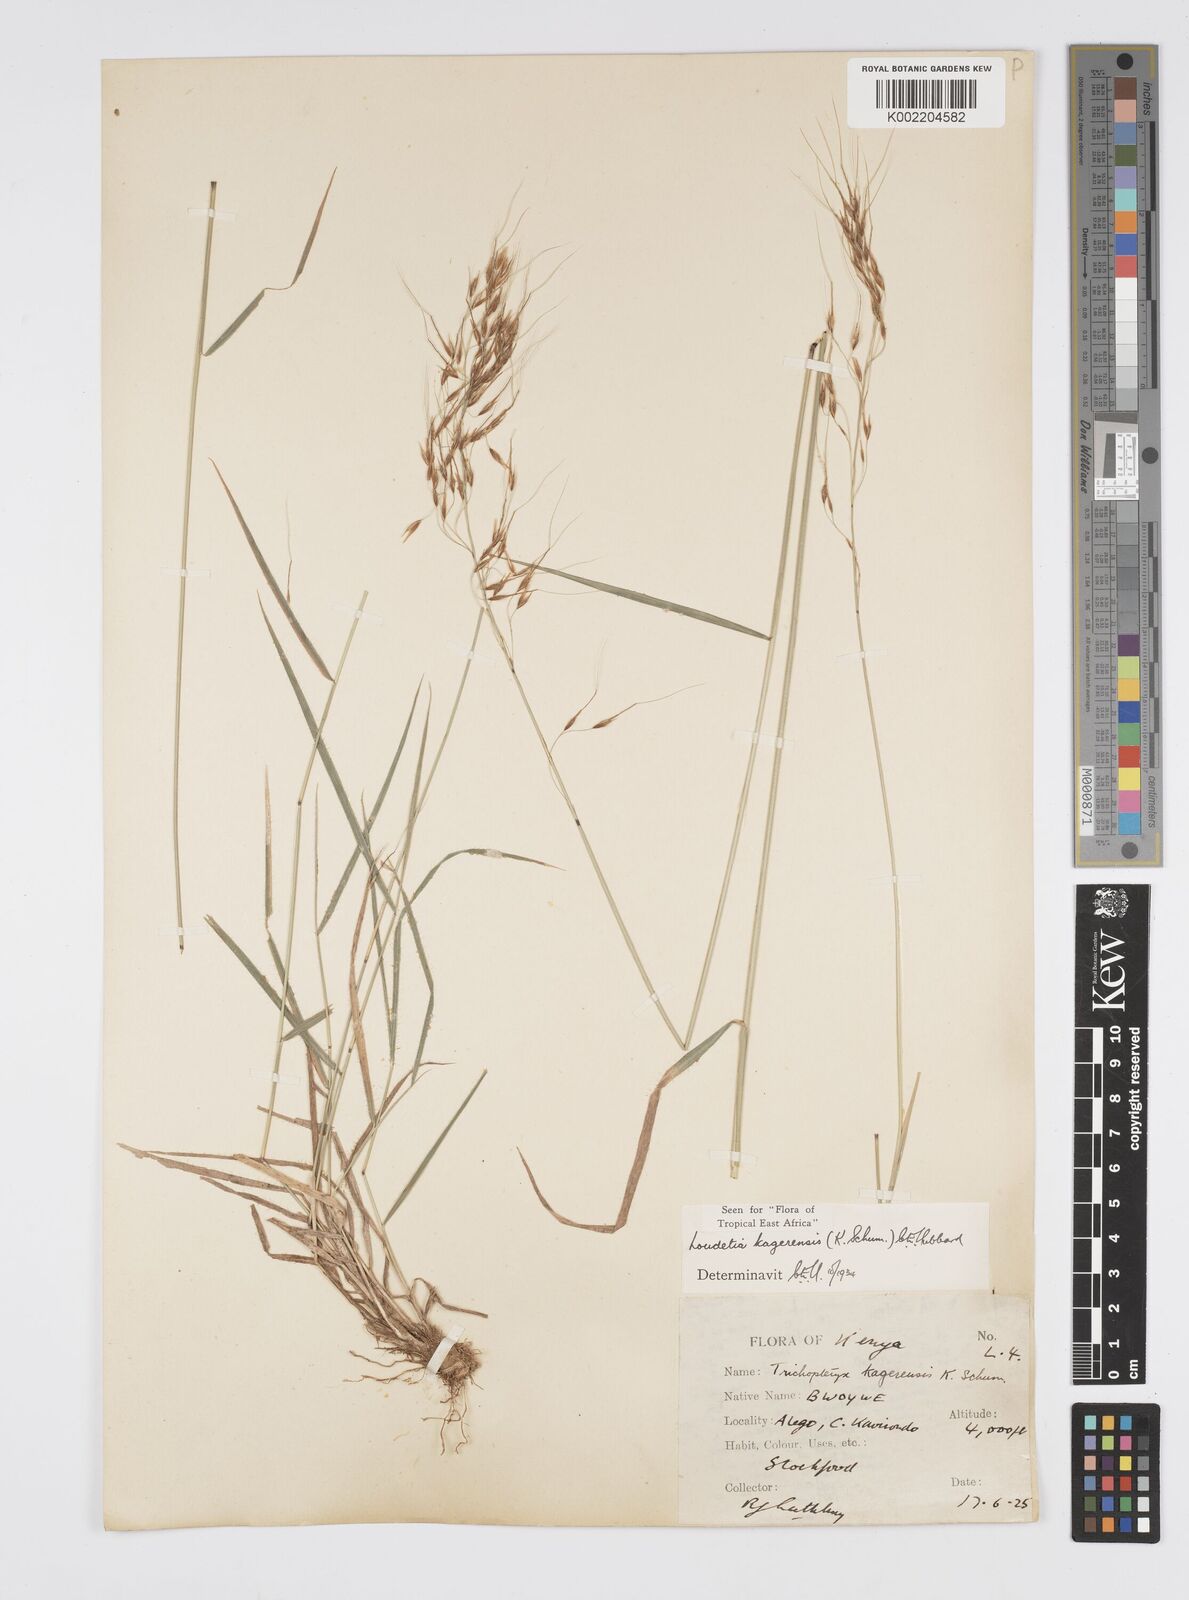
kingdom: Plantae
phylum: Tracheophyta
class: Liliopsida
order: Poales
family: Poaceae
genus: Loudetia
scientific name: Loudetia kagerensis
